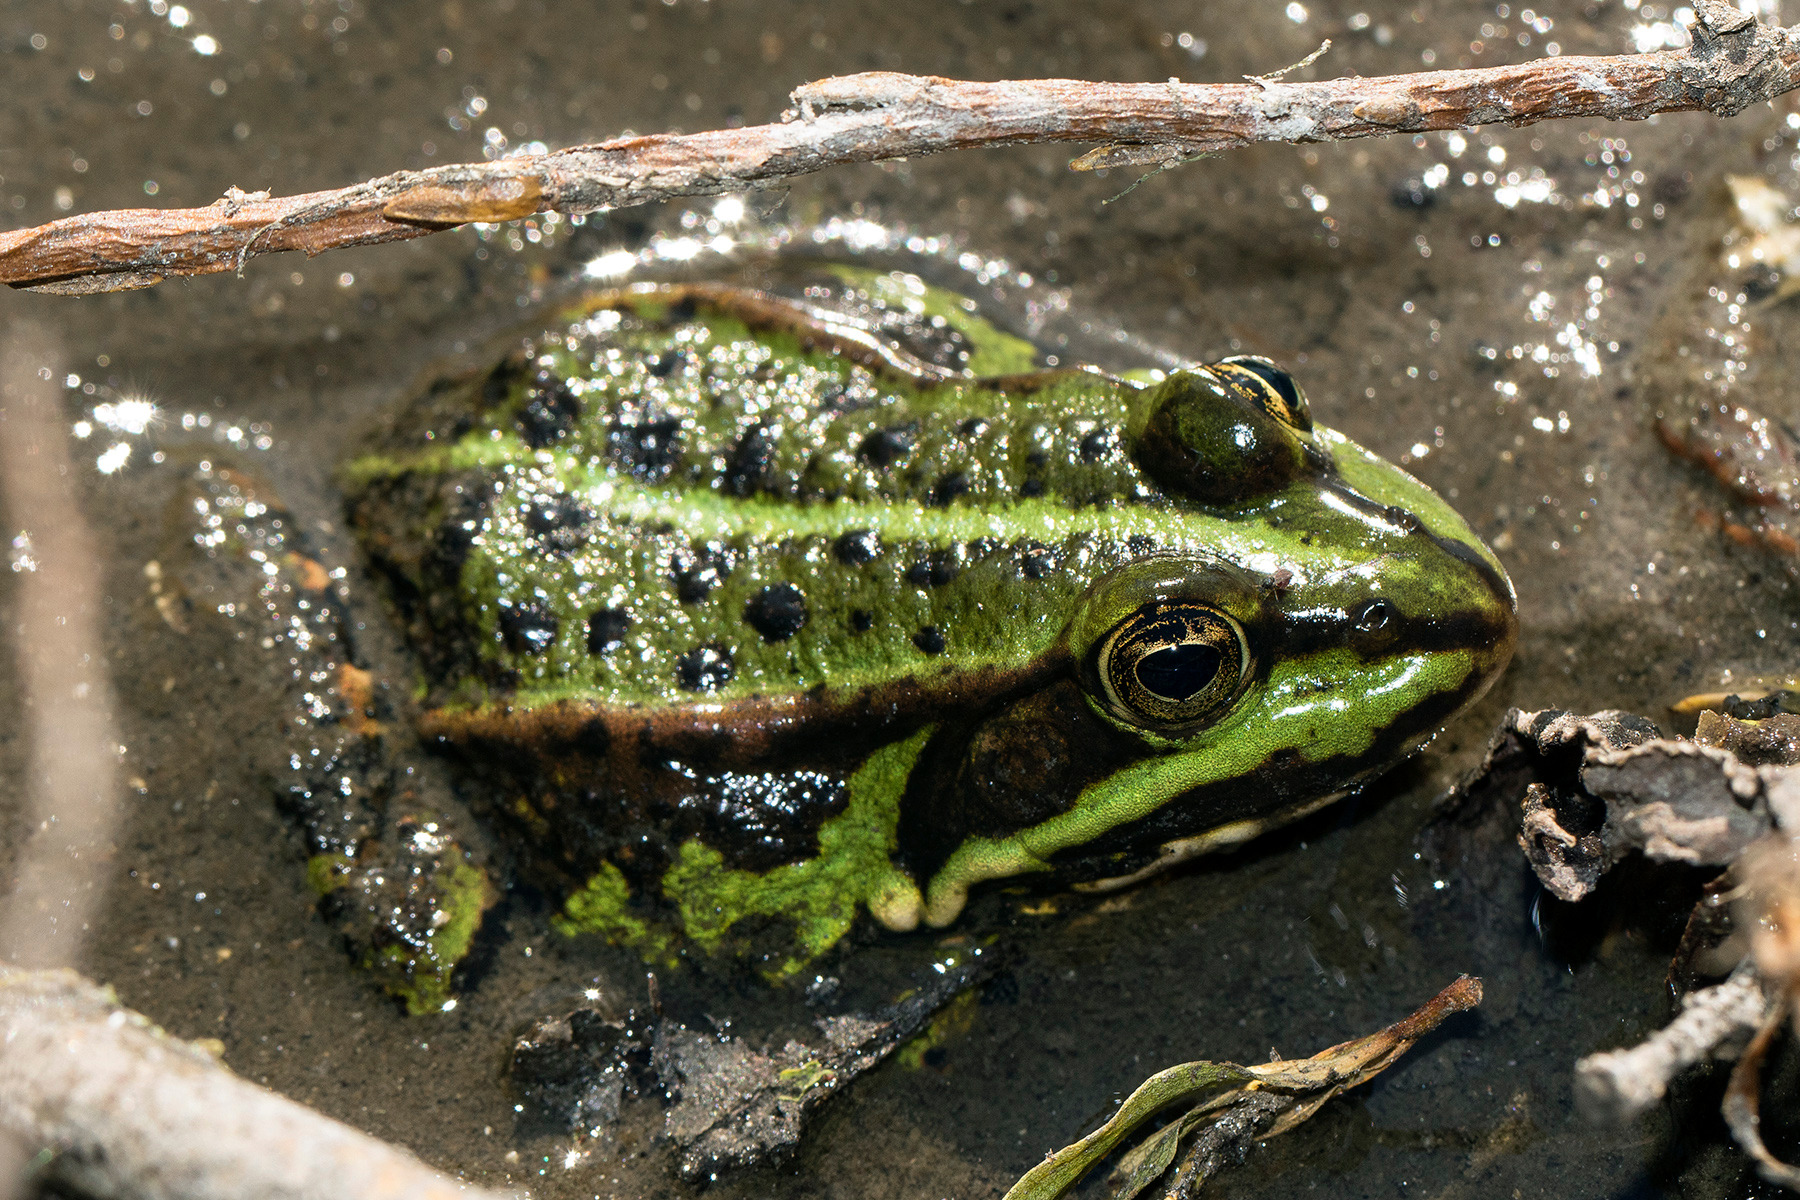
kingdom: Animalia
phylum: Chordata
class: Amphibia
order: Anura
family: Ranidae
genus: Pelophylax
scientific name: Pelophylax lessonae
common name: Grøn frø
